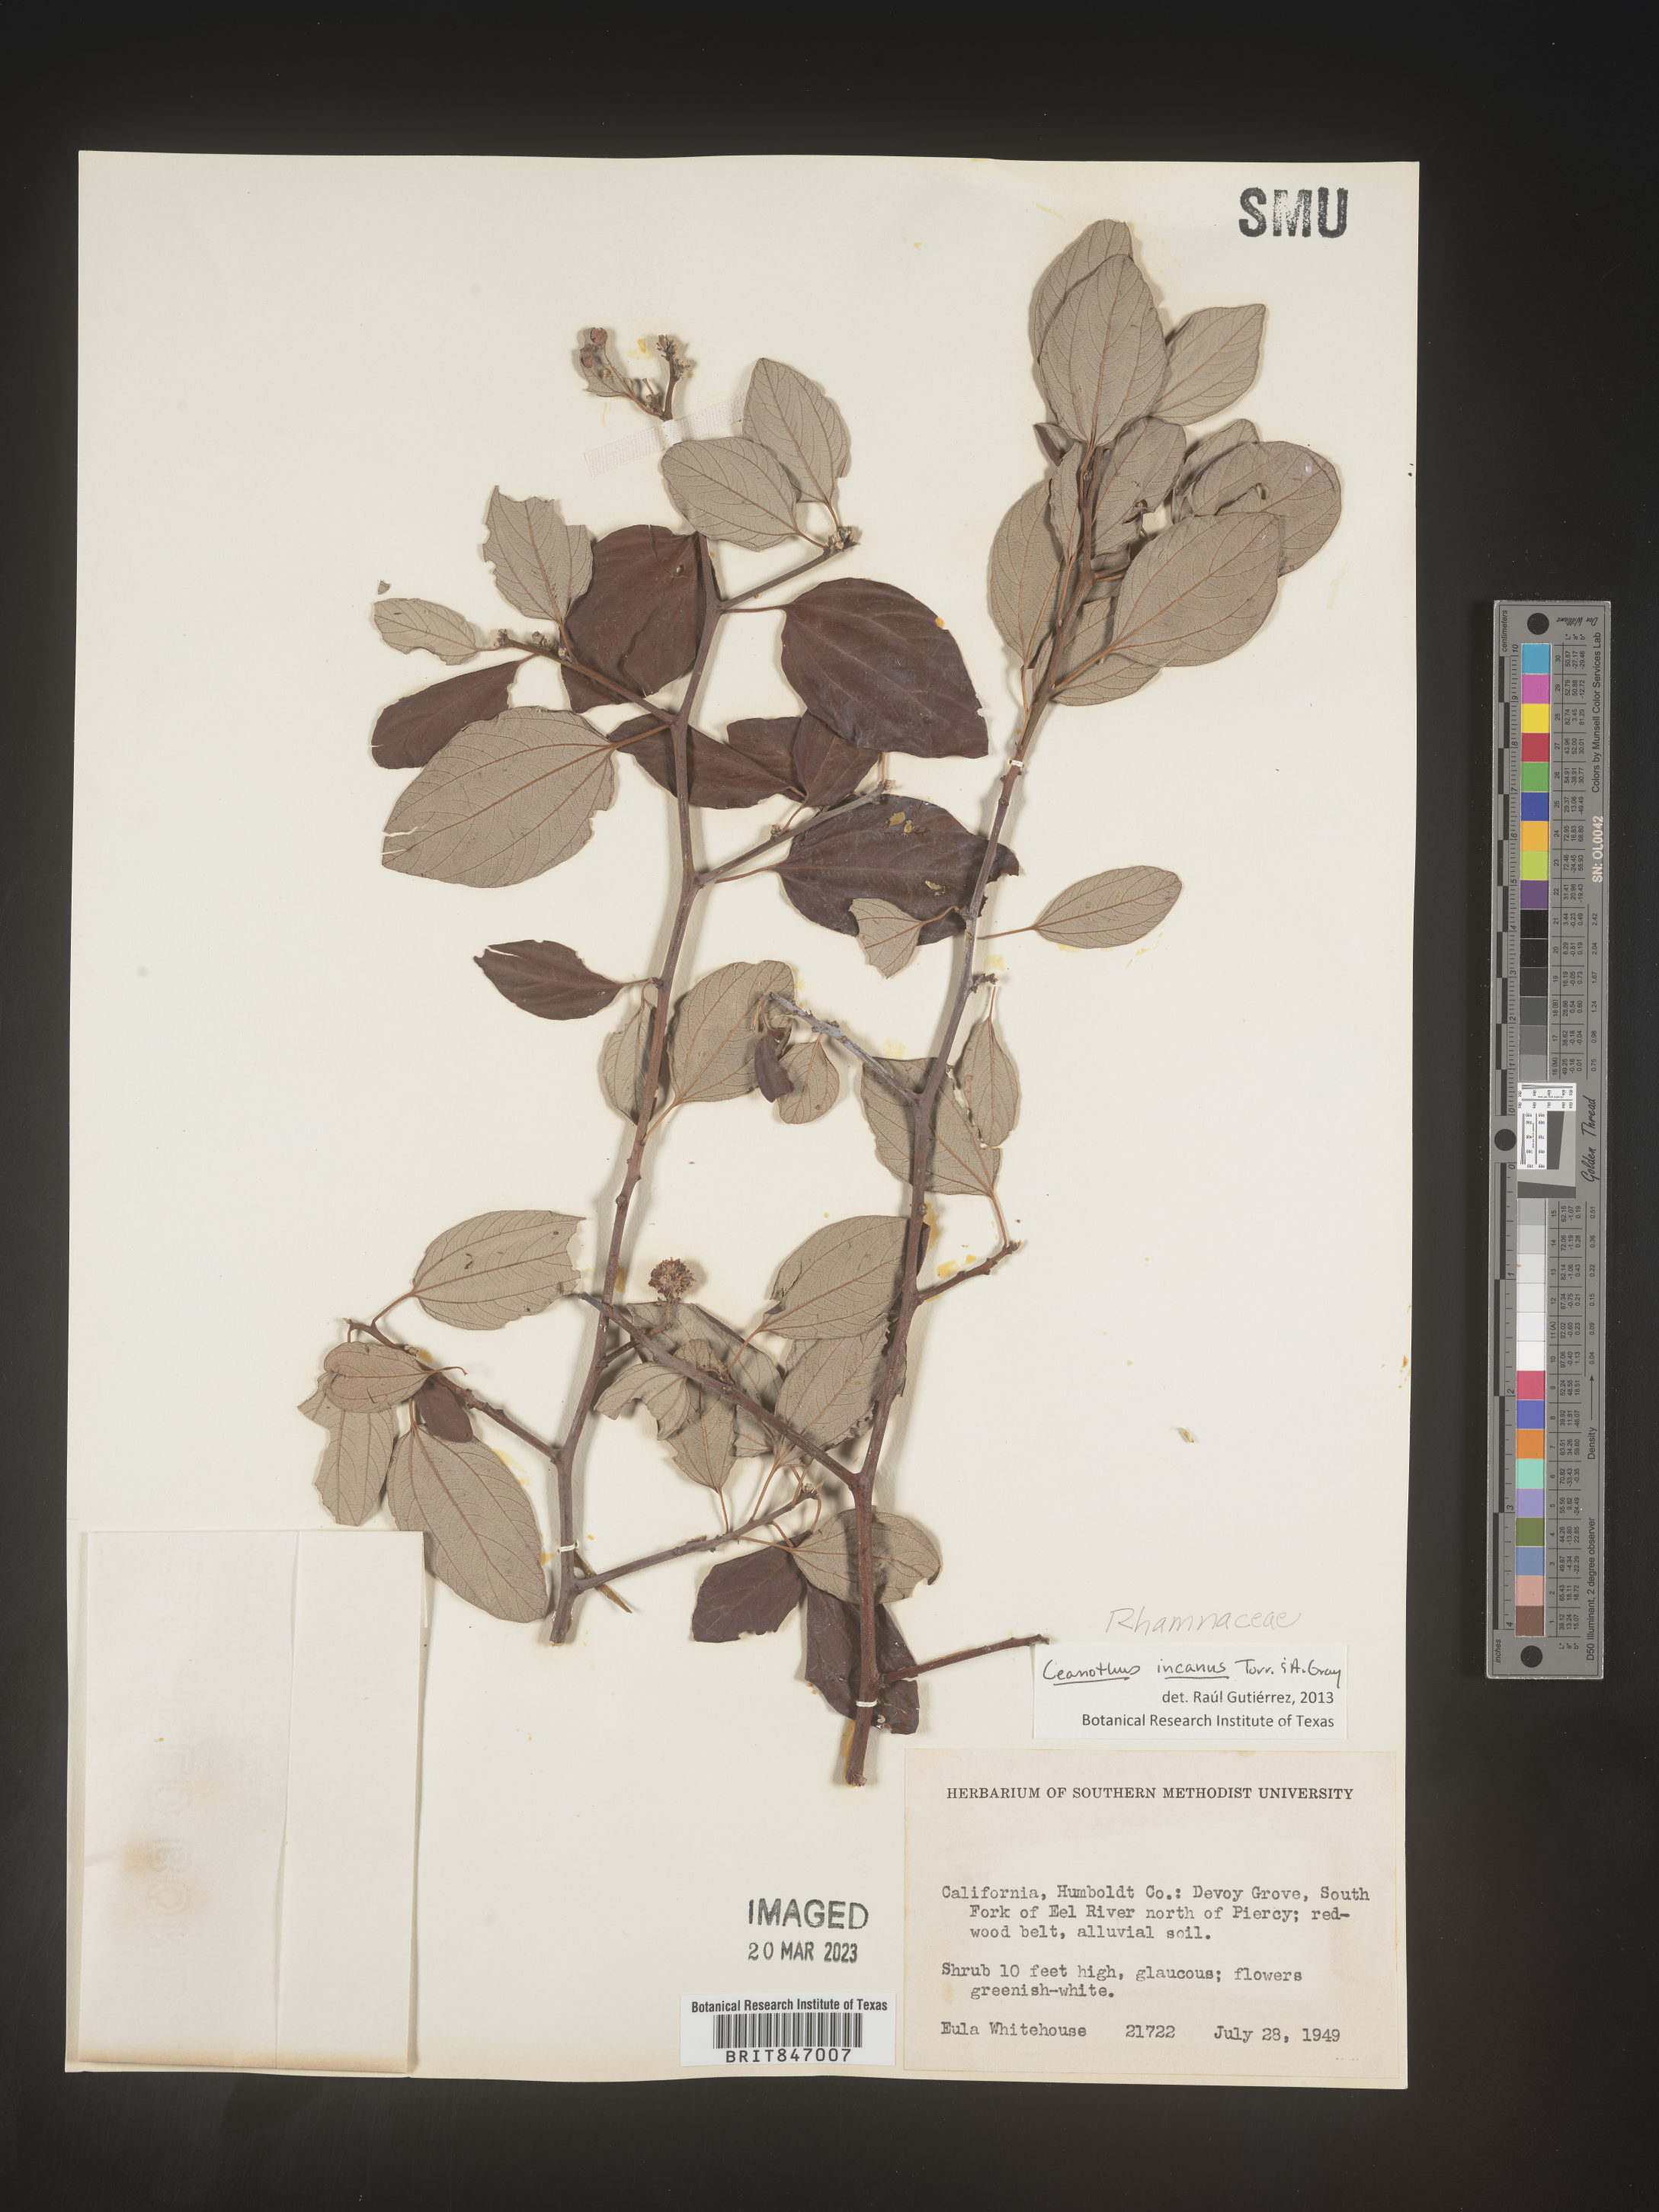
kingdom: Plantae
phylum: Tracheophyta
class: Magnoliopsida
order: Rosales
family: Rhamnaceae
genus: Ceanothus
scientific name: Ceanothus
